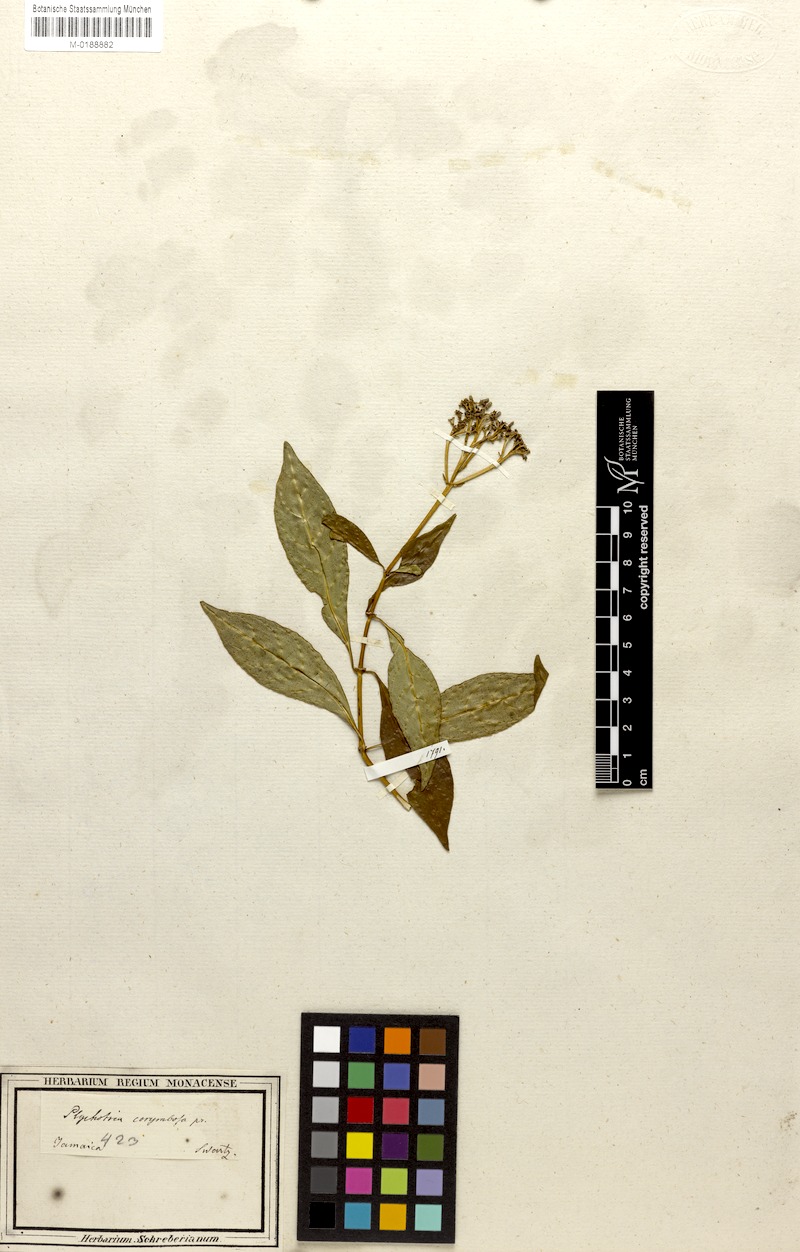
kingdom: Plantae
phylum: Tracheophyta
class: Magnoliopsida
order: Gentianales
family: Rubiaceae
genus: Palicourea
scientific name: Palicourea corymbosa
